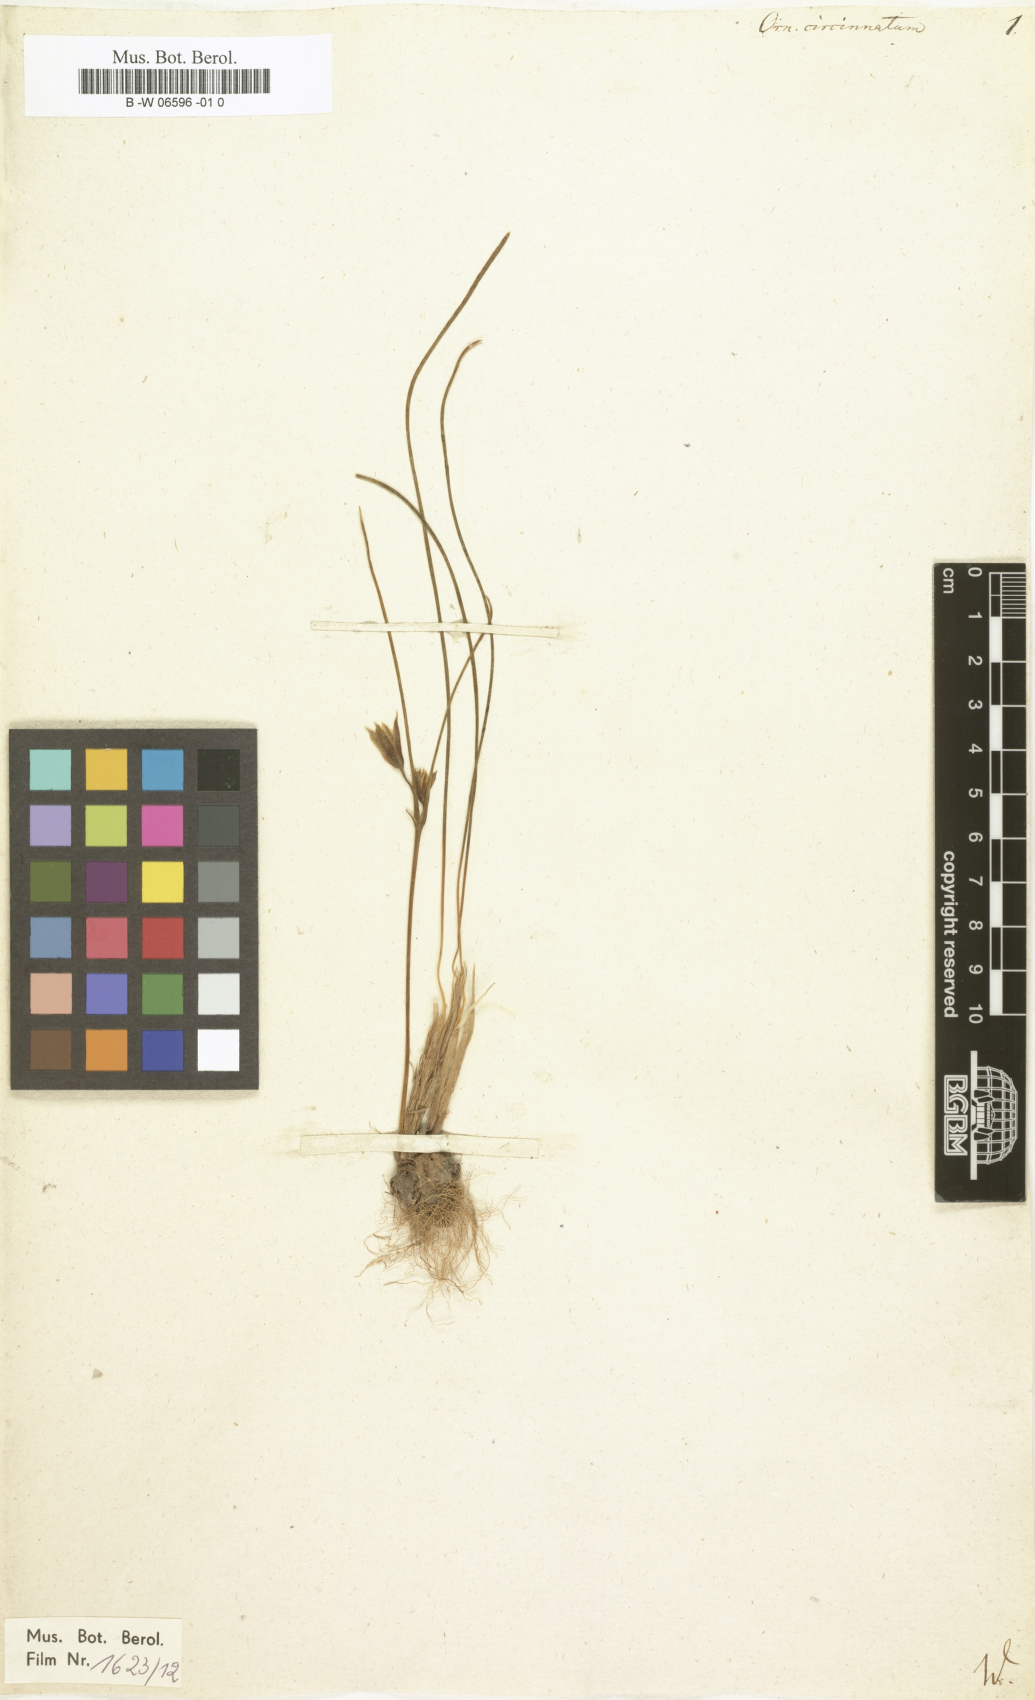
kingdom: Plantae
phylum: Tracheophyta
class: Liliopsida
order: Liliales
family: Liliaceae
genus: Gagea
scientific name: Gagea reticulata
